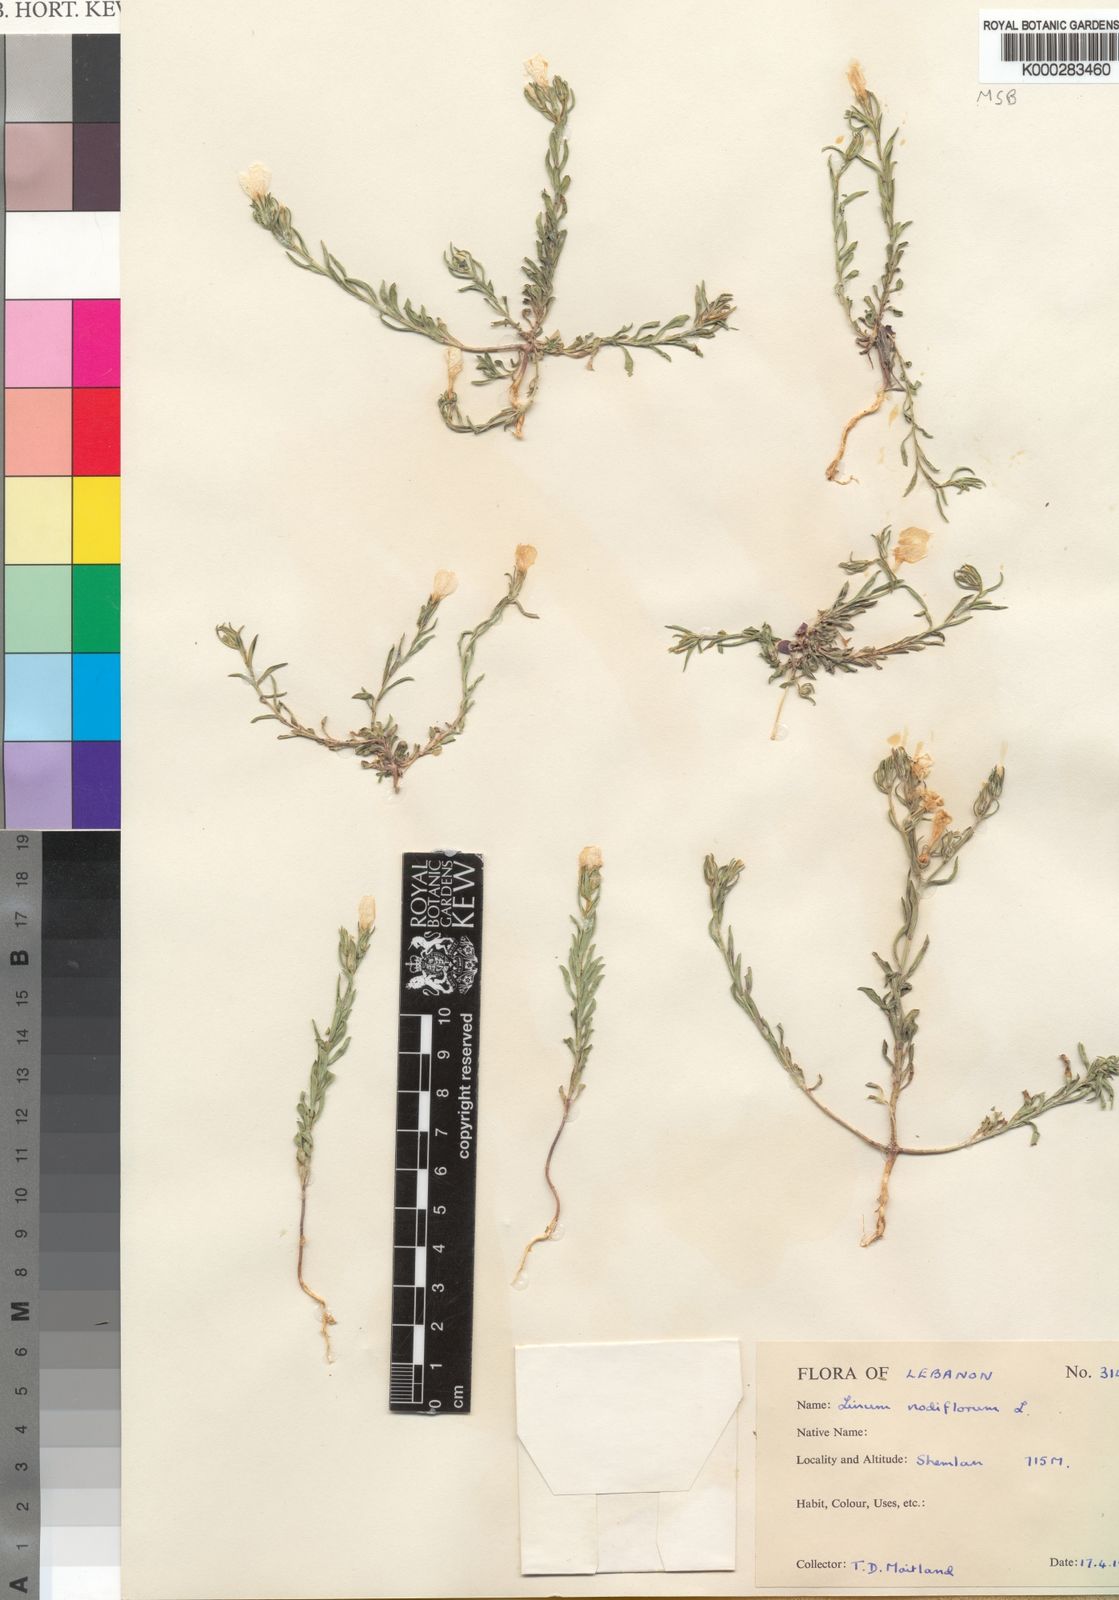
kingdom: Plantae
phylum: Tracheophyta
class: Magnoliopsida
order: Malpighiales
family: Linaceae
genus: Linum
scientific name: Linum nodiflorum
